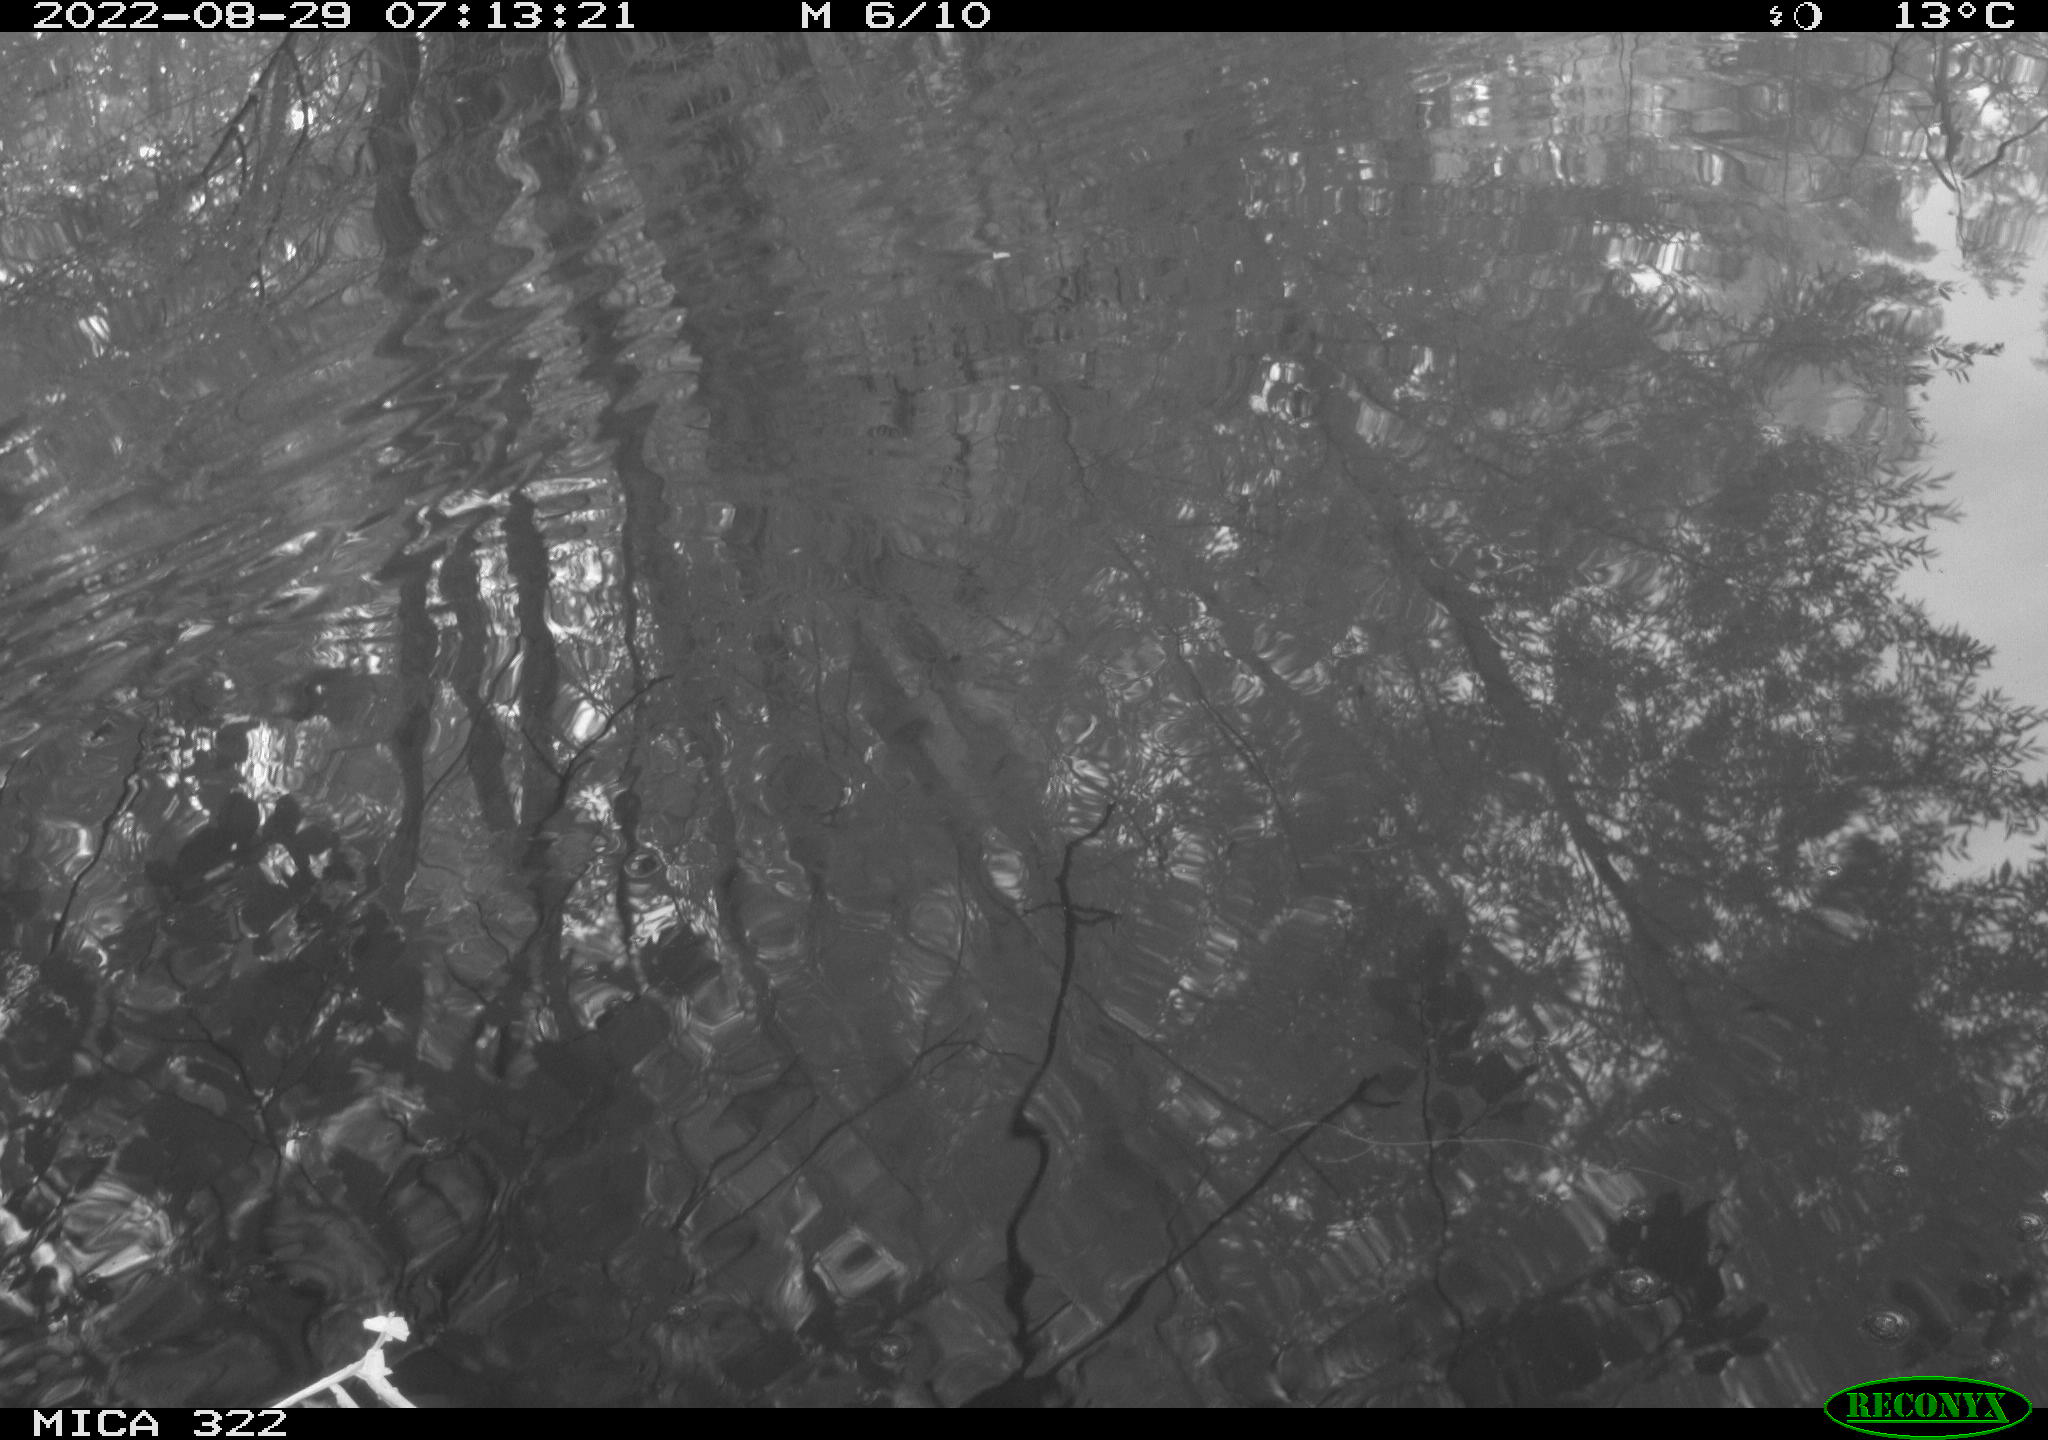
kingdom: Animalia
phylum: Chordata
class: Aves
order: Gruiformes
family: Rallidae
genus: Gallinula
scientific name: Gallinula chloropus
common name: Common moorhen
